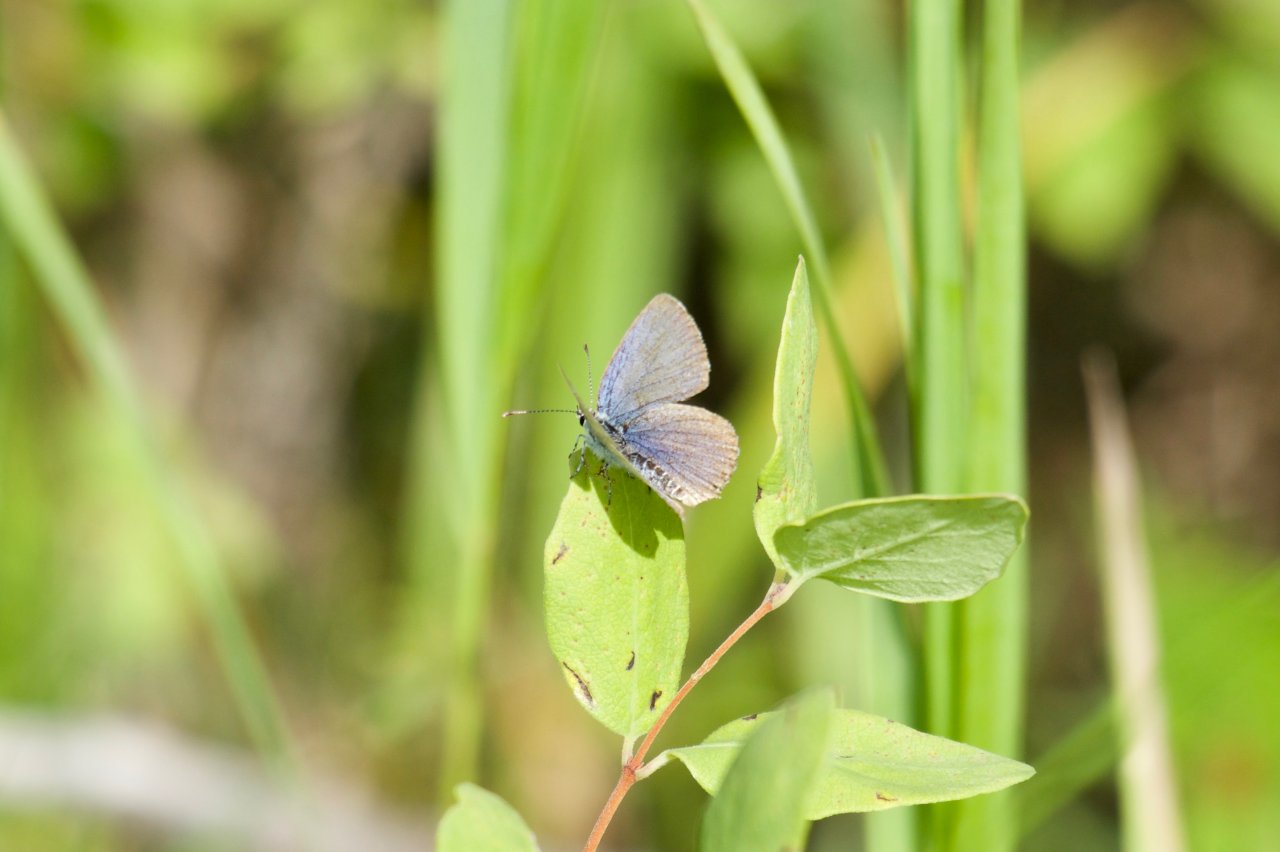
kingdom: Animalia
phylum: Arthropoda
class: Insecta
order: Lepidoptera
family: Lycaenidae
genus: Elkalyce
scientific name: Elkalyce amyntula
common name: Western Tailed-Blue
